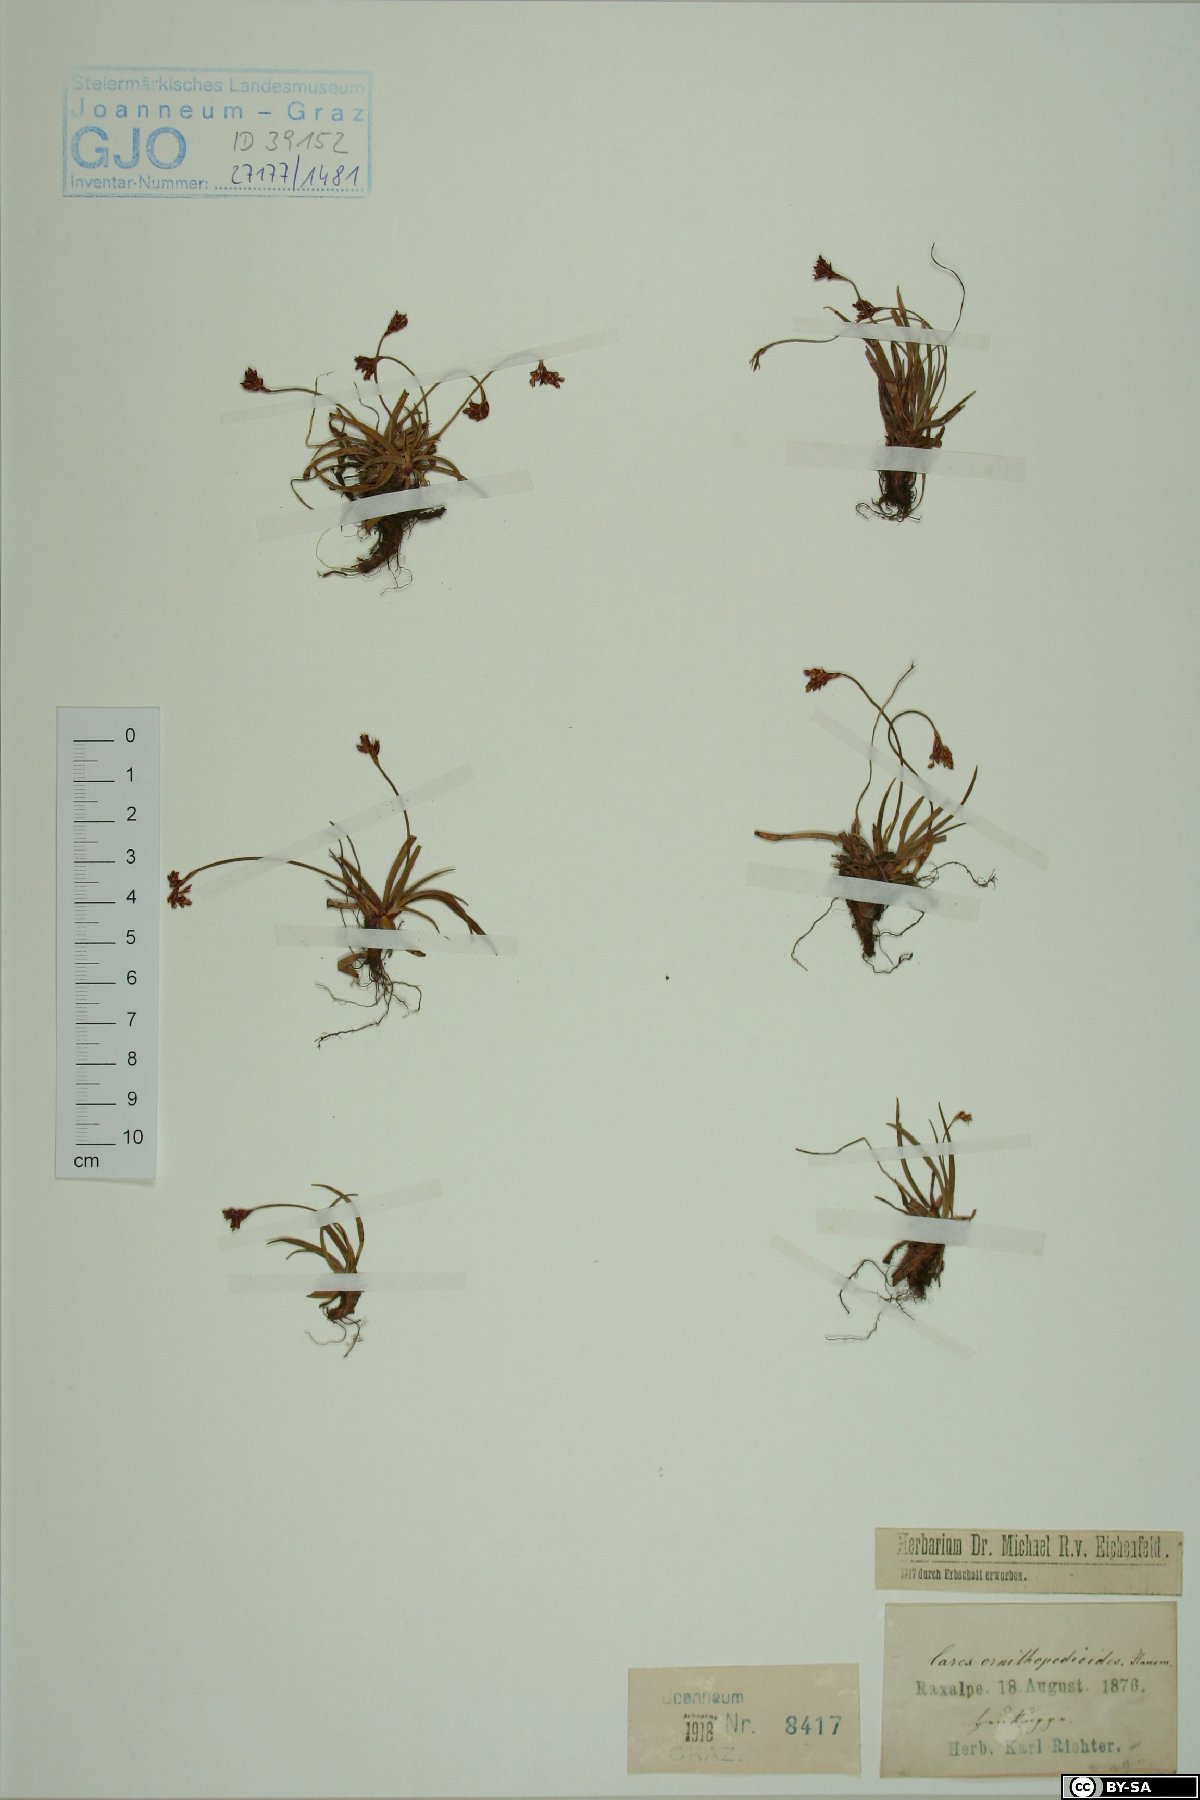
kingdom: Plantae
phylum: Tracheophyta
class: Liliopsida
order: Poales
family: Cyperaceae
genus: Carex
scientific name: Carex ornithopoda
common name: Bird's-foot sedge
